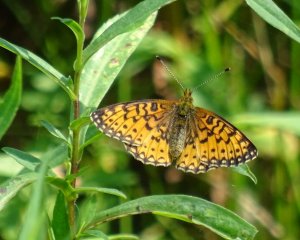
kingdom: Animalia
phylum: Arthropoda
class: Insecta
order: Lepidoptera
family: Nymphalidae
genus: Boloria
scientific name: Boloria selene
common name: Silver-bordered Fritillary
